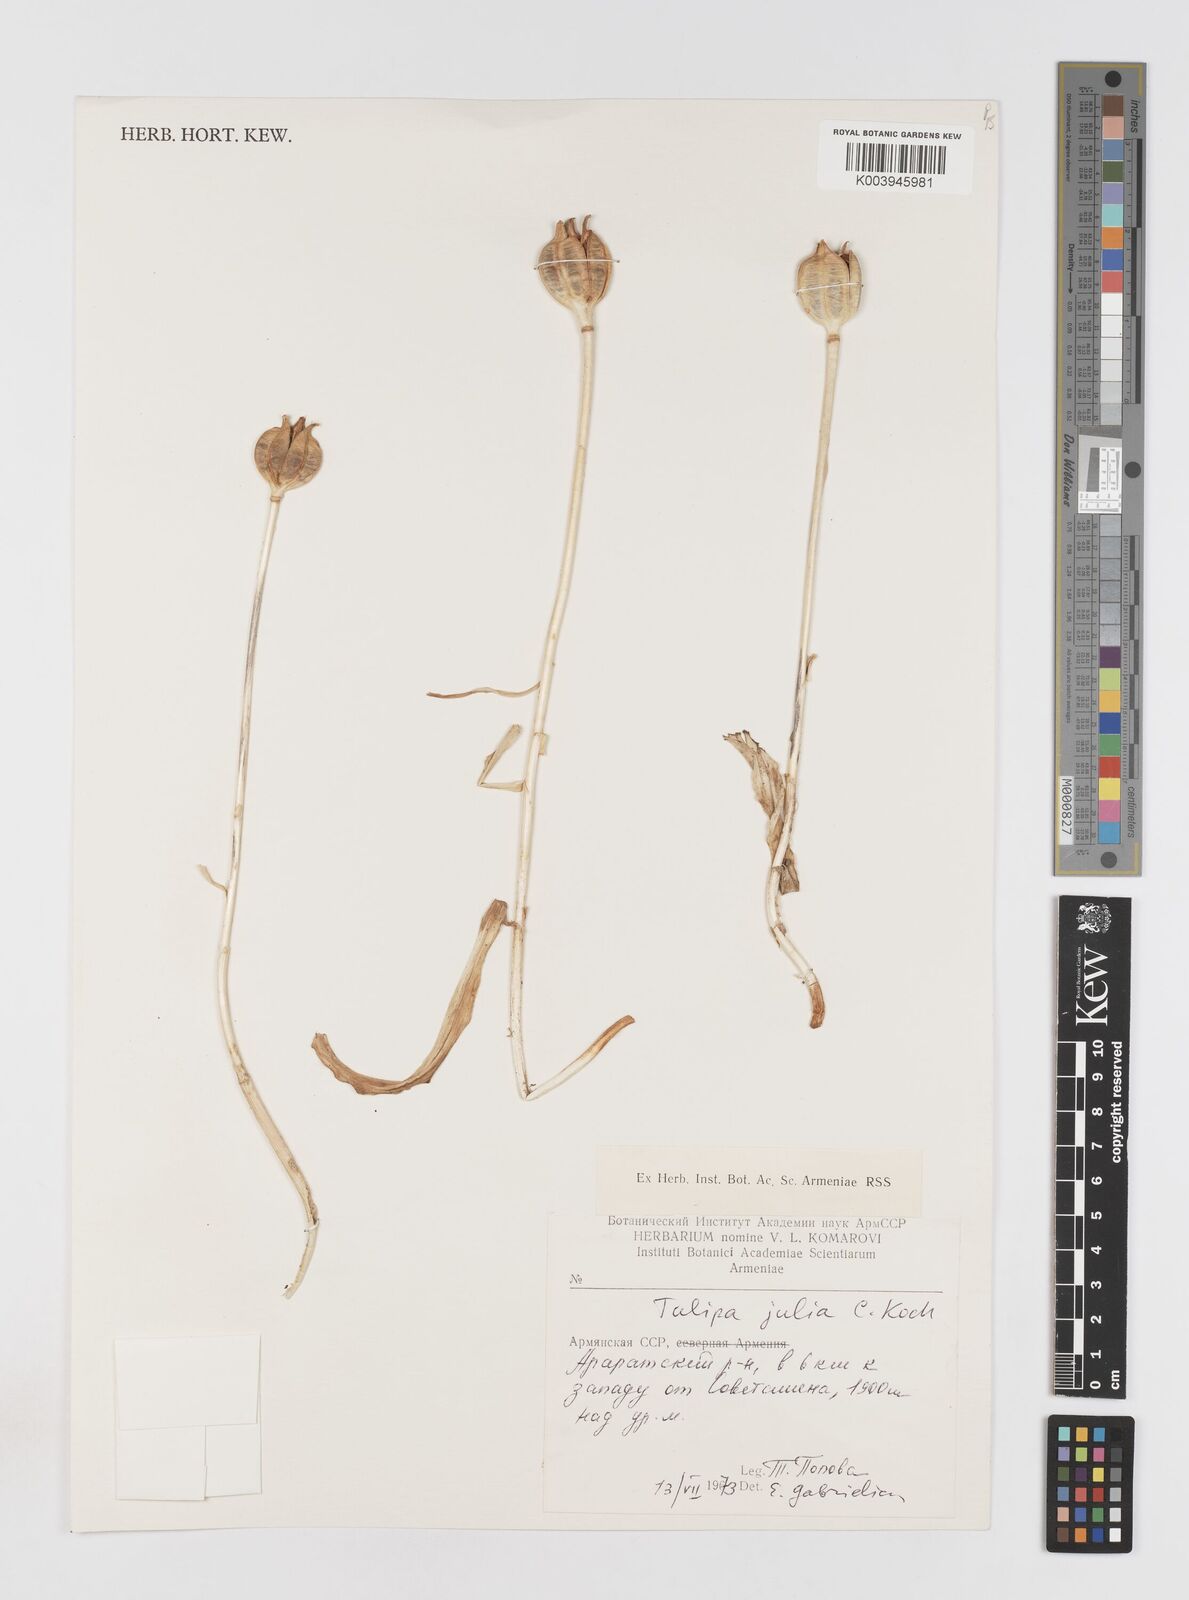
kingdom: Plantae
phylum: Tracheophyta
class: Liliopsida
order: Liliales
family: Liliaceae
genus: Tulipa
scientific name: Tulipa julia
